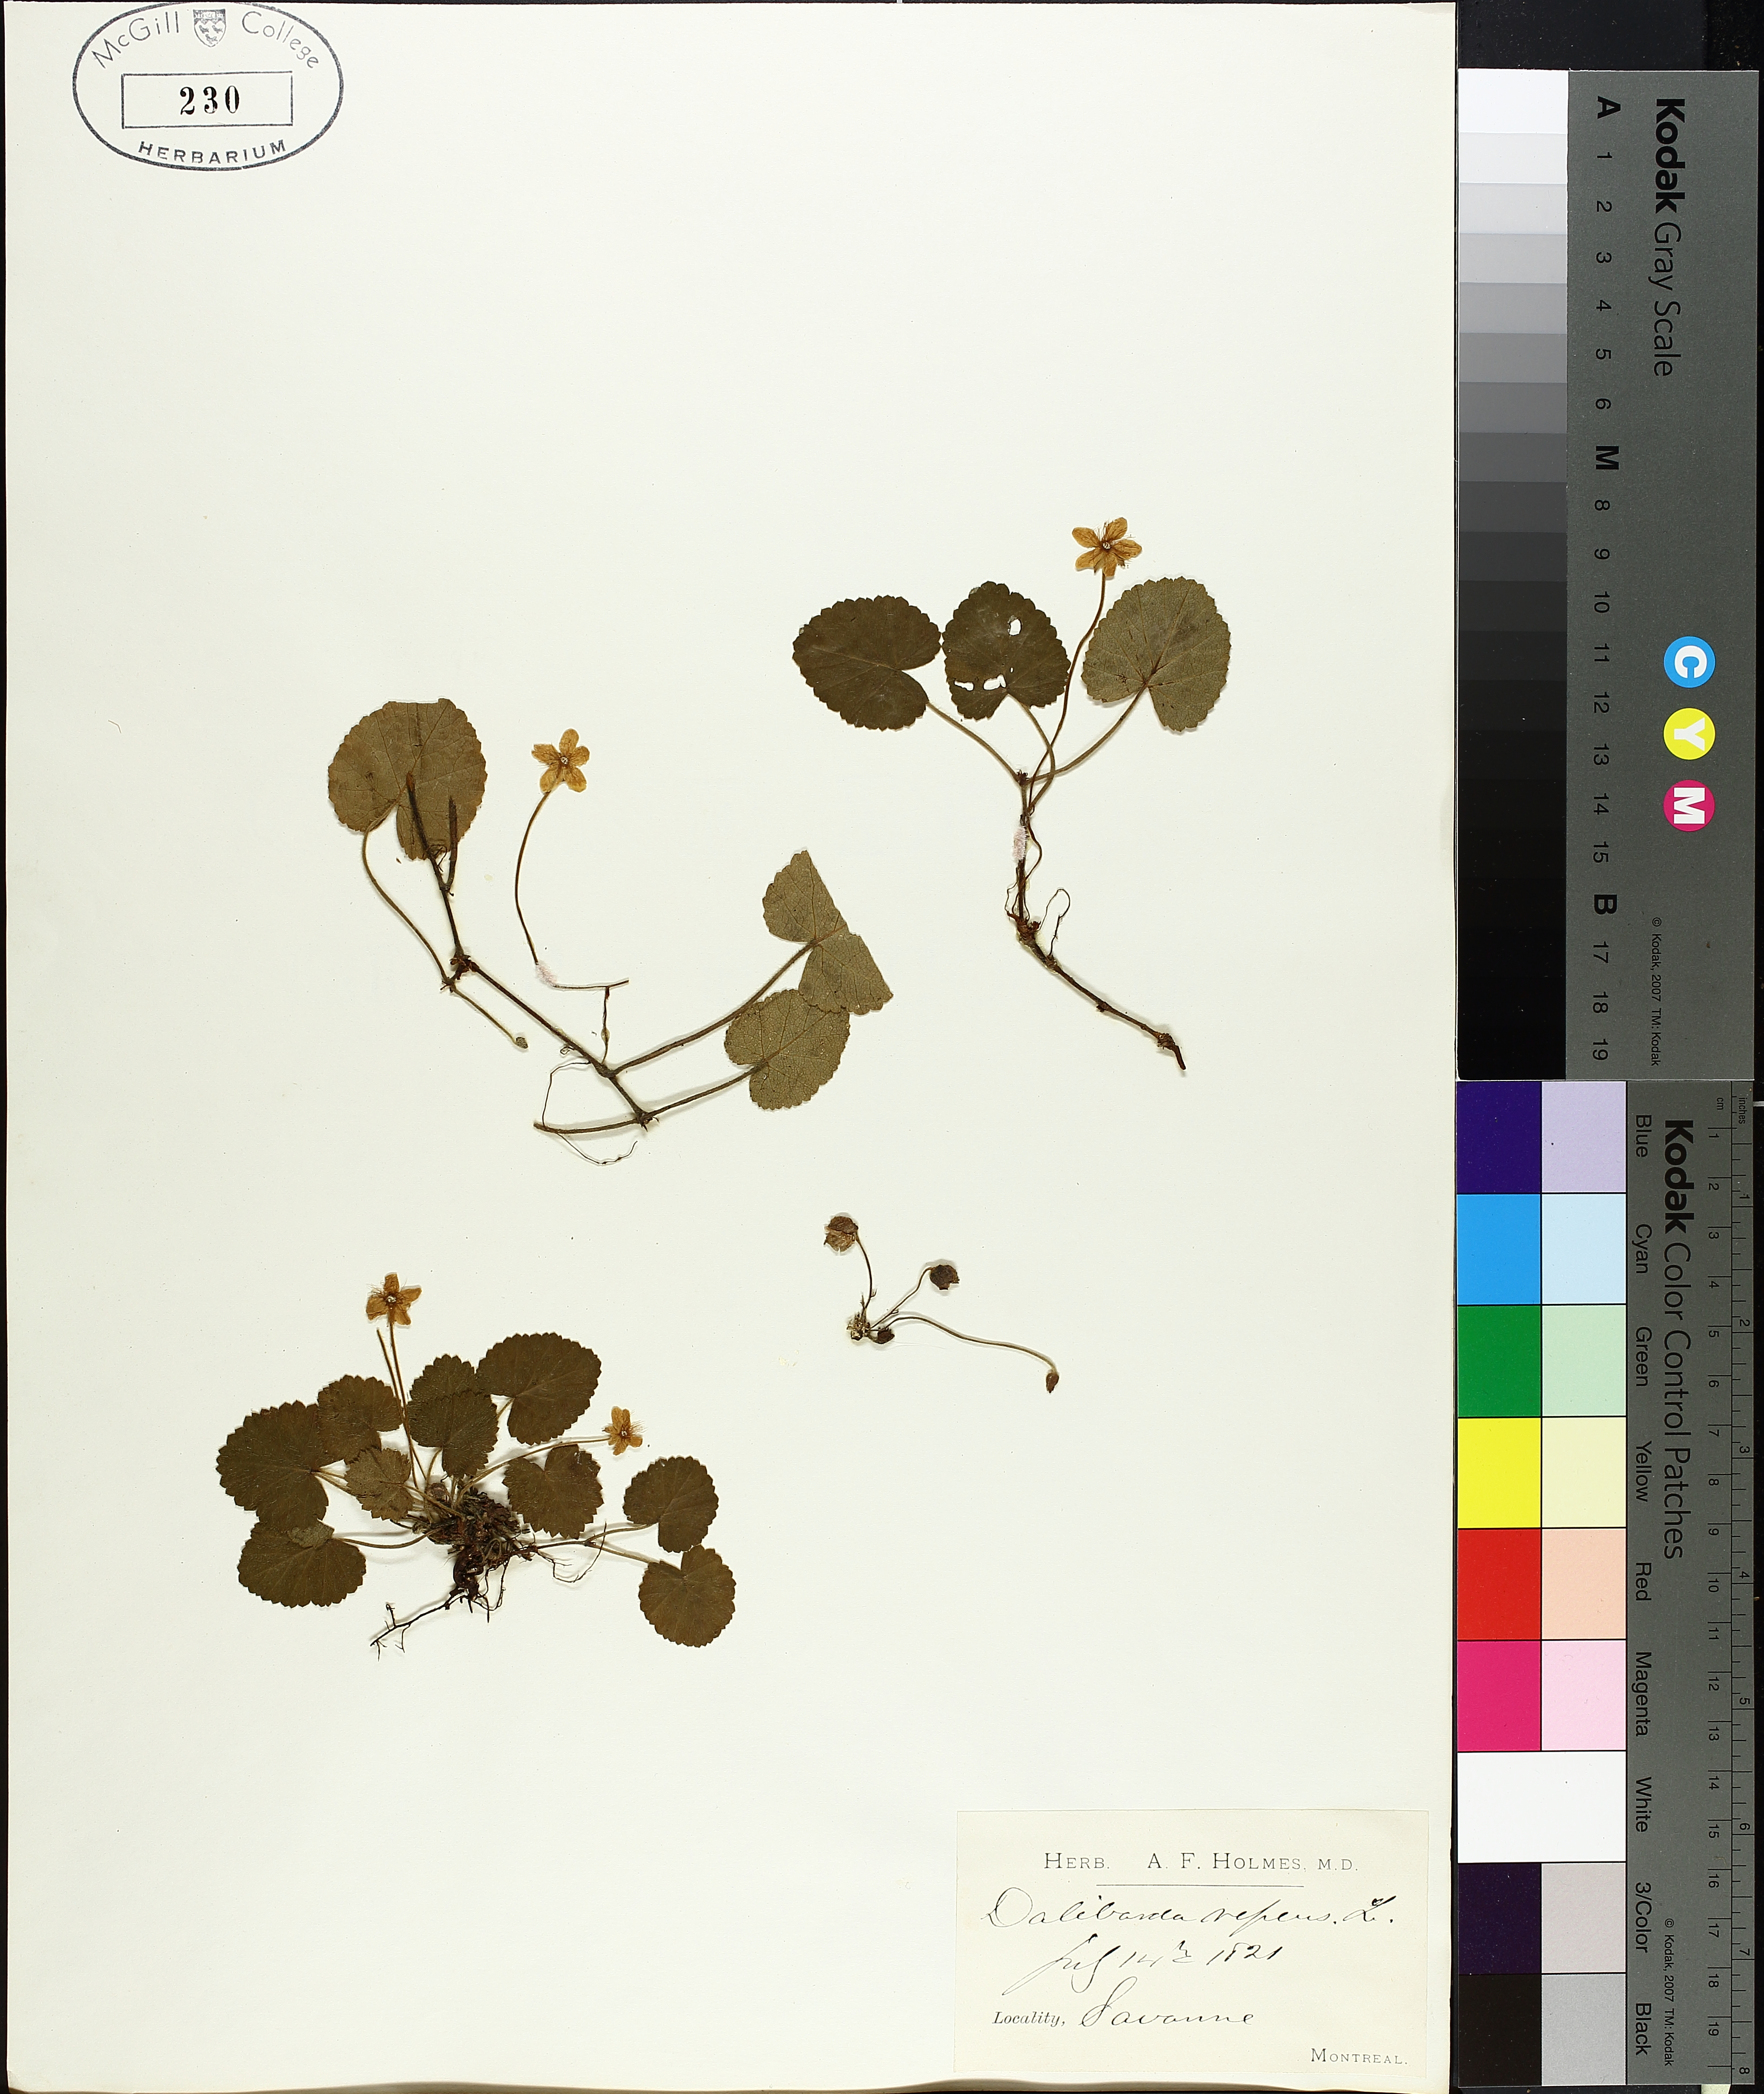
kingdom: Plantae
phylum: Tracheophyta
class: Magnoliopsida
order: Rosales
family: Rosaceae
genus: Dalibarda
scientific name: Dalibarda repens
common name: Dewdrop
